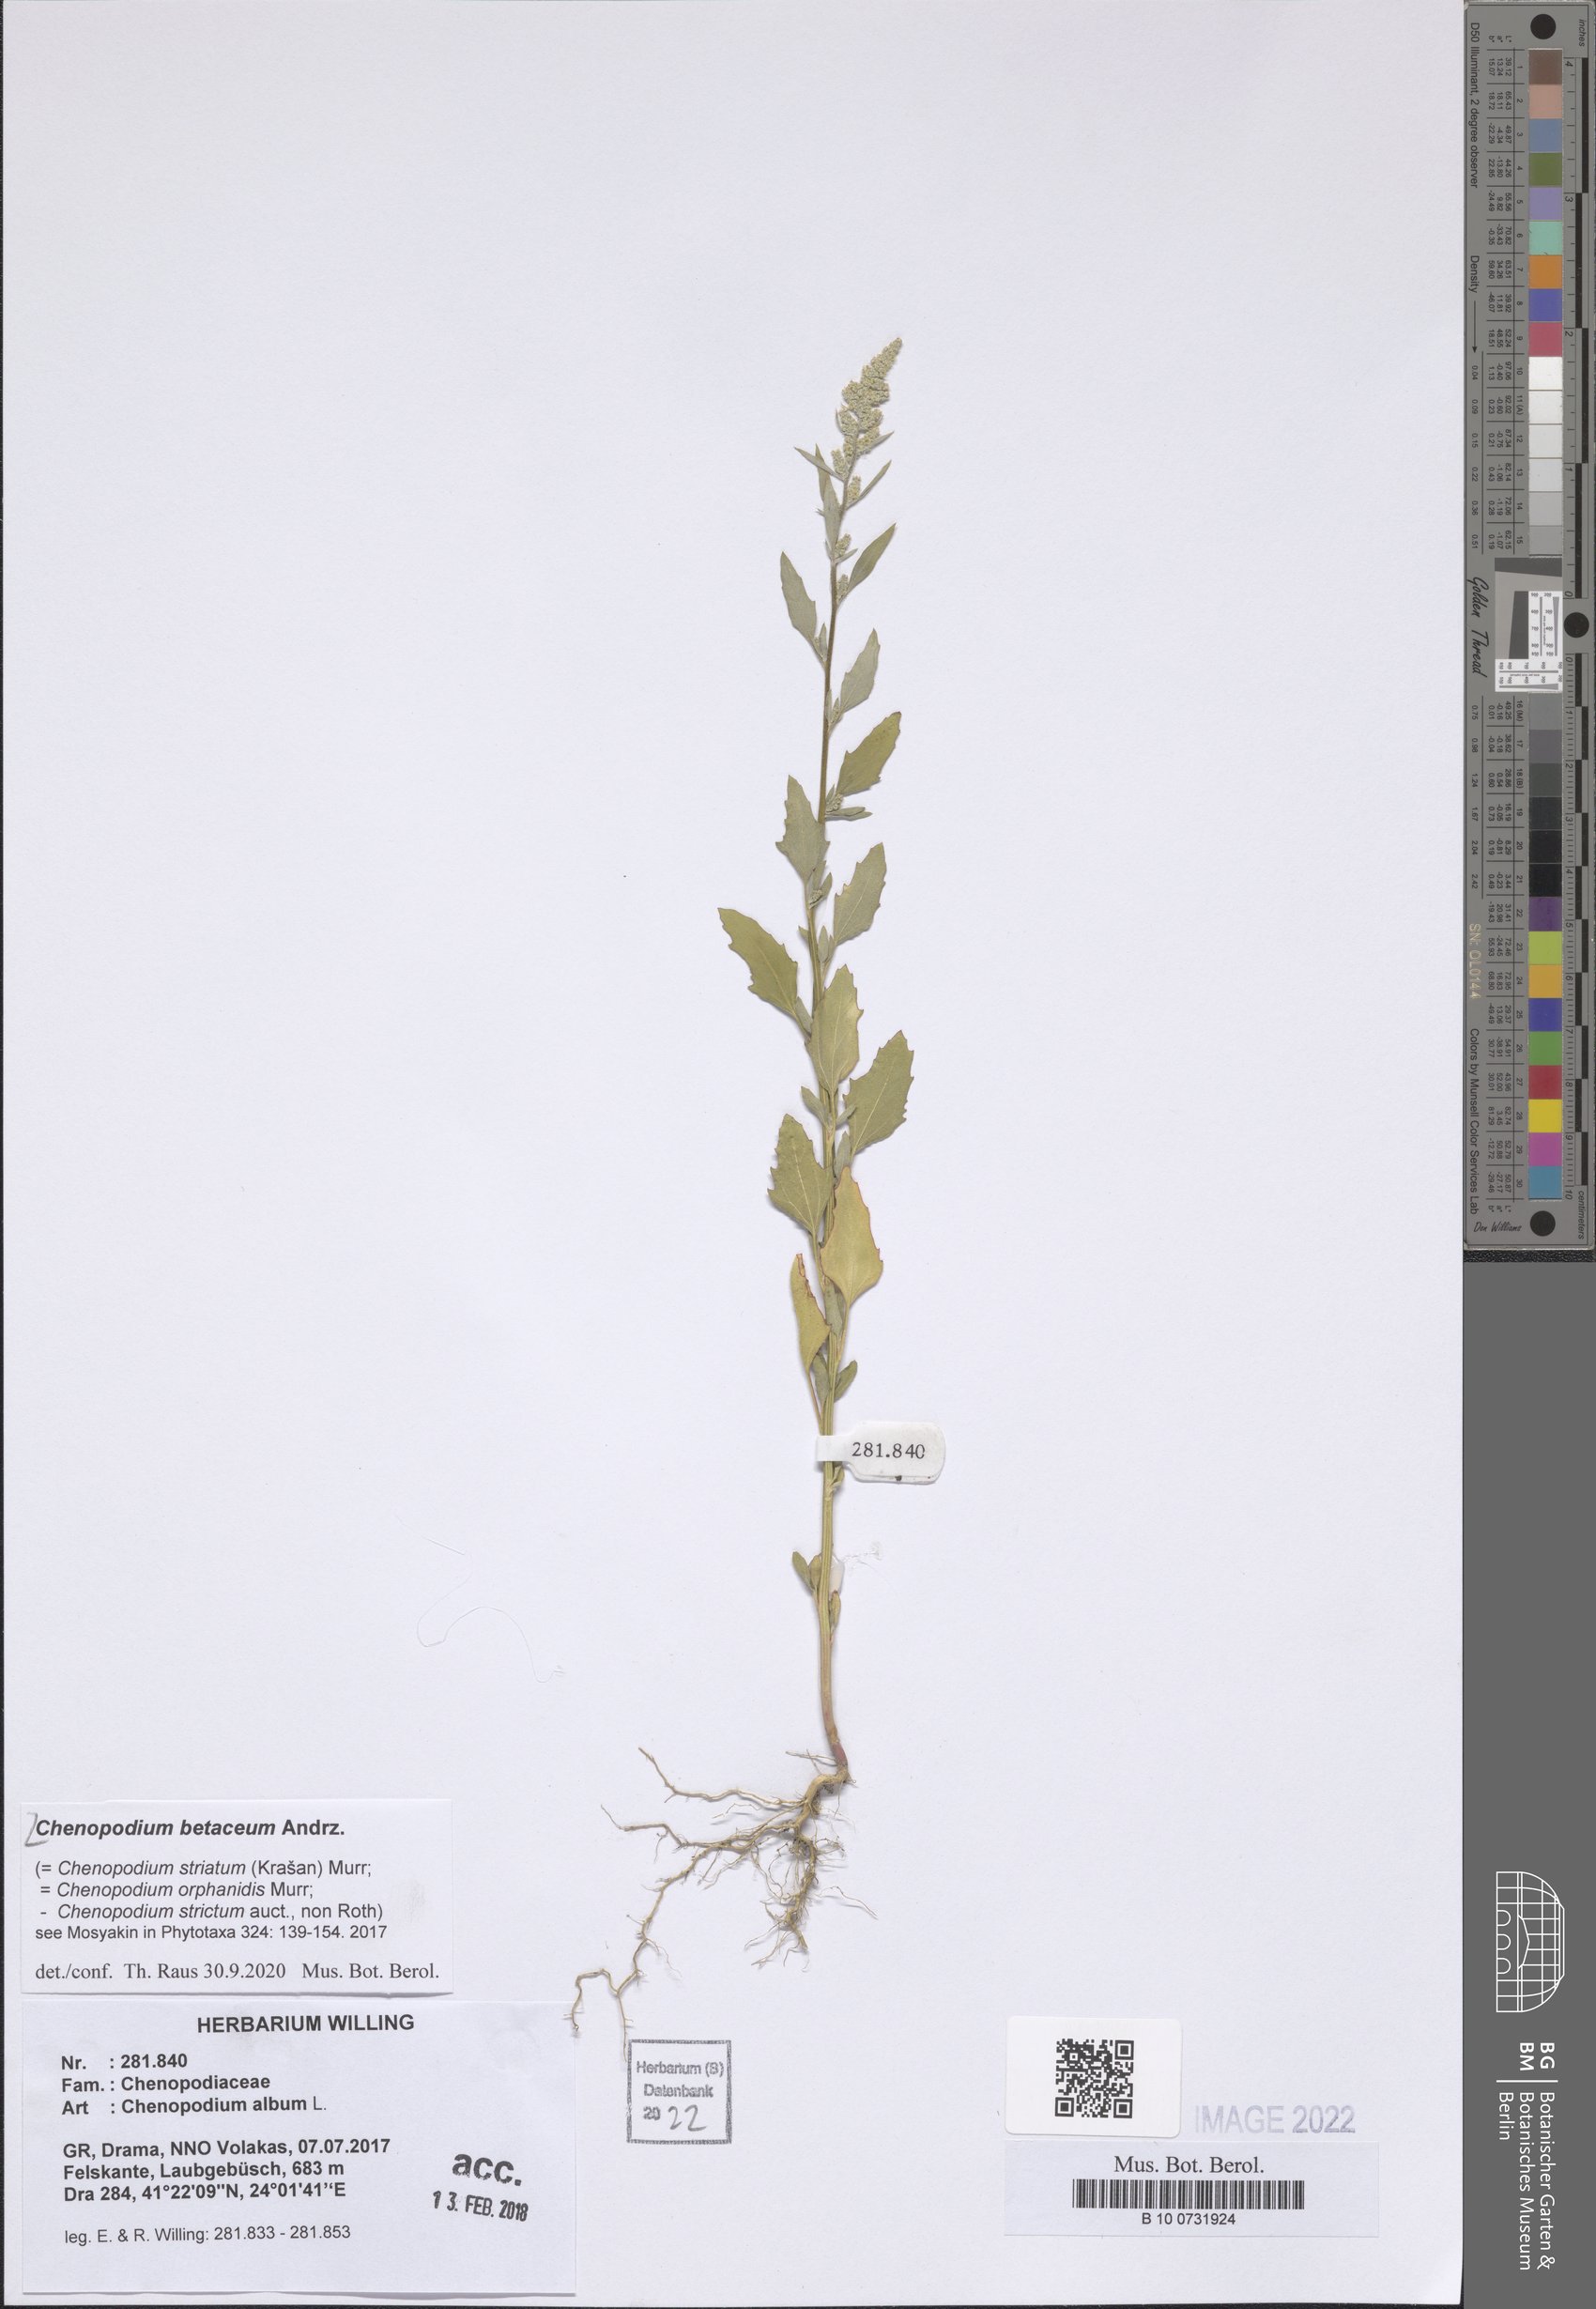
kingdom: Plantae
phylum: Tracheophyta
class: Magnoliopsida
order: Caryophyllales
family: Amaranthaceae
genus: Chenopodium
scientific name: Chenopodium betaceum
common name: Striped goosefoot
